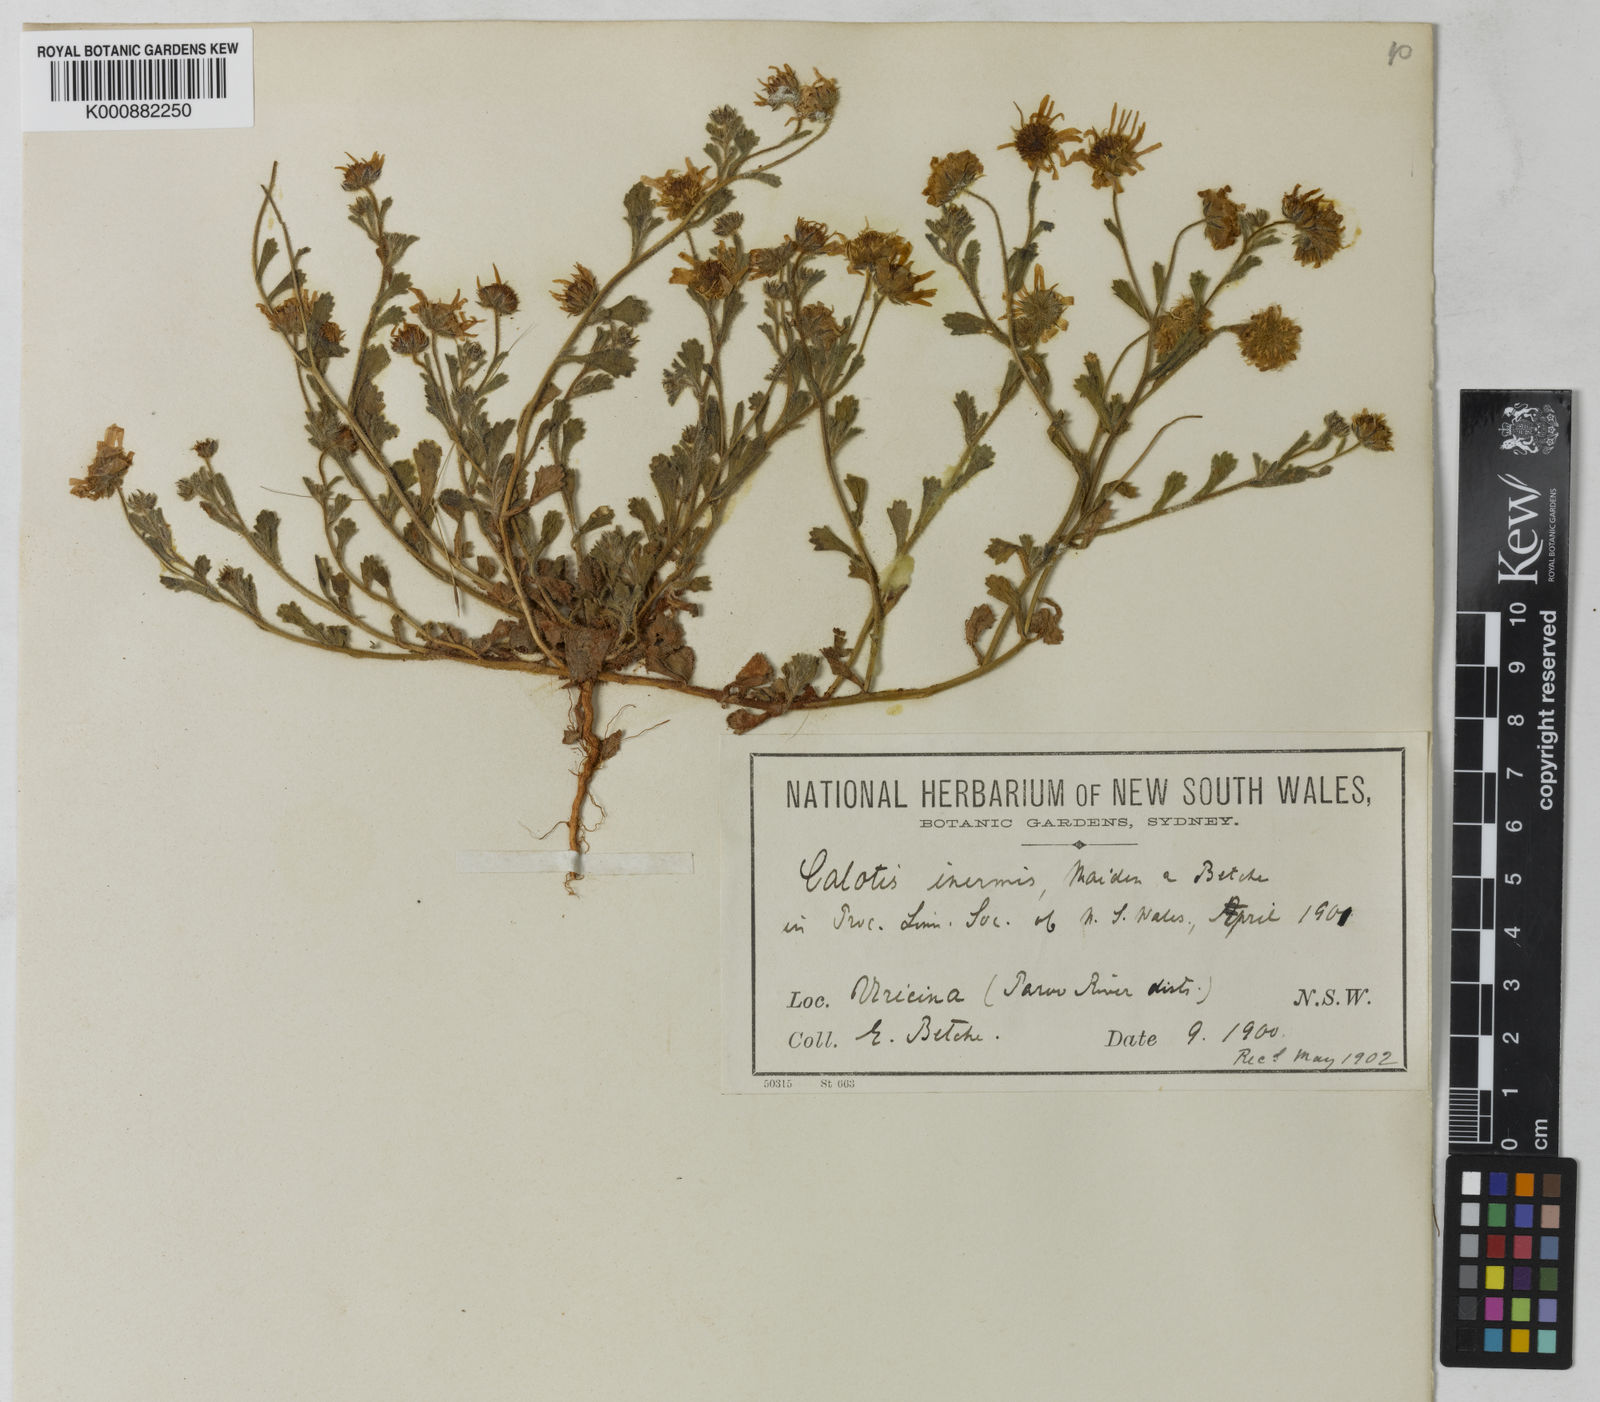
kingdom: Plantae
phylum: Tracheophyta
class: Magnoliopsida
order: Asterales
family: Asteraceae
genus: Calotis
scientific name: Calotis inermis
